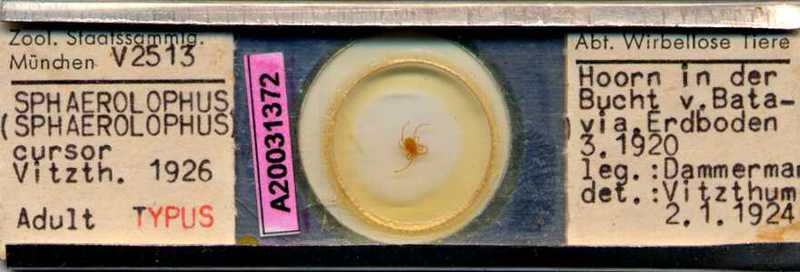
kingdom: Animalia
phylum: Arthropoda
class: Arachnida
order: Trombidiformes
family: Erythraeidae
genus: Charletonia
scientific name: Charletonia cursor
